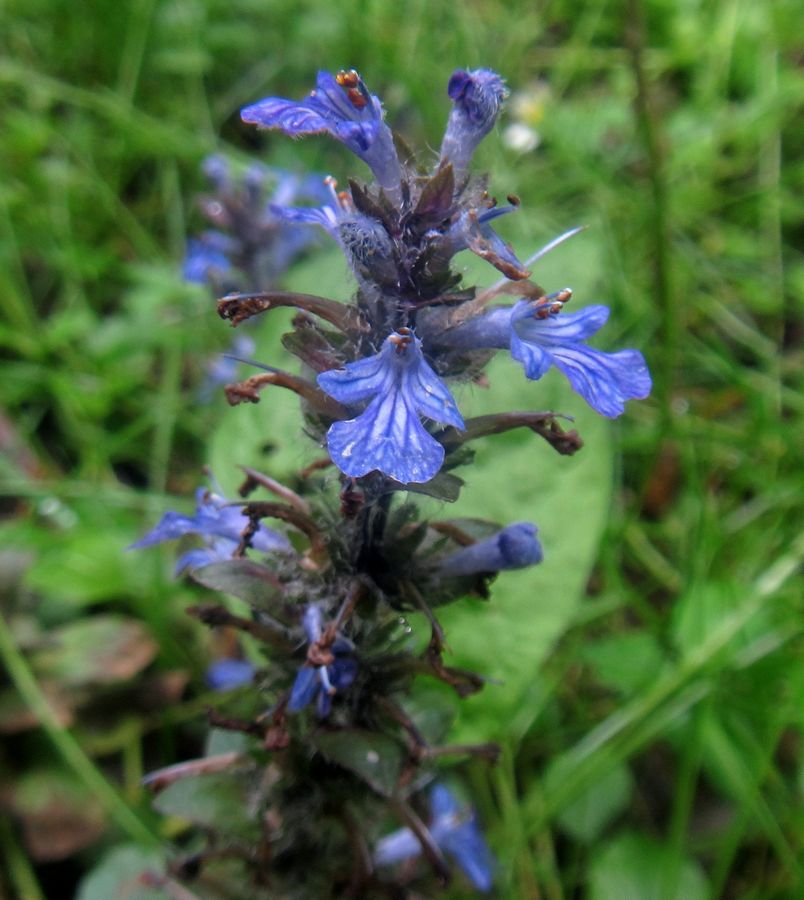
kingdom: Plantae
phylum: Tracheophyta
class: Magnoliopsida
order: Lamiales
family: Lamiaceae
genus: Ajuga
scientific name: Ajuga reptans
